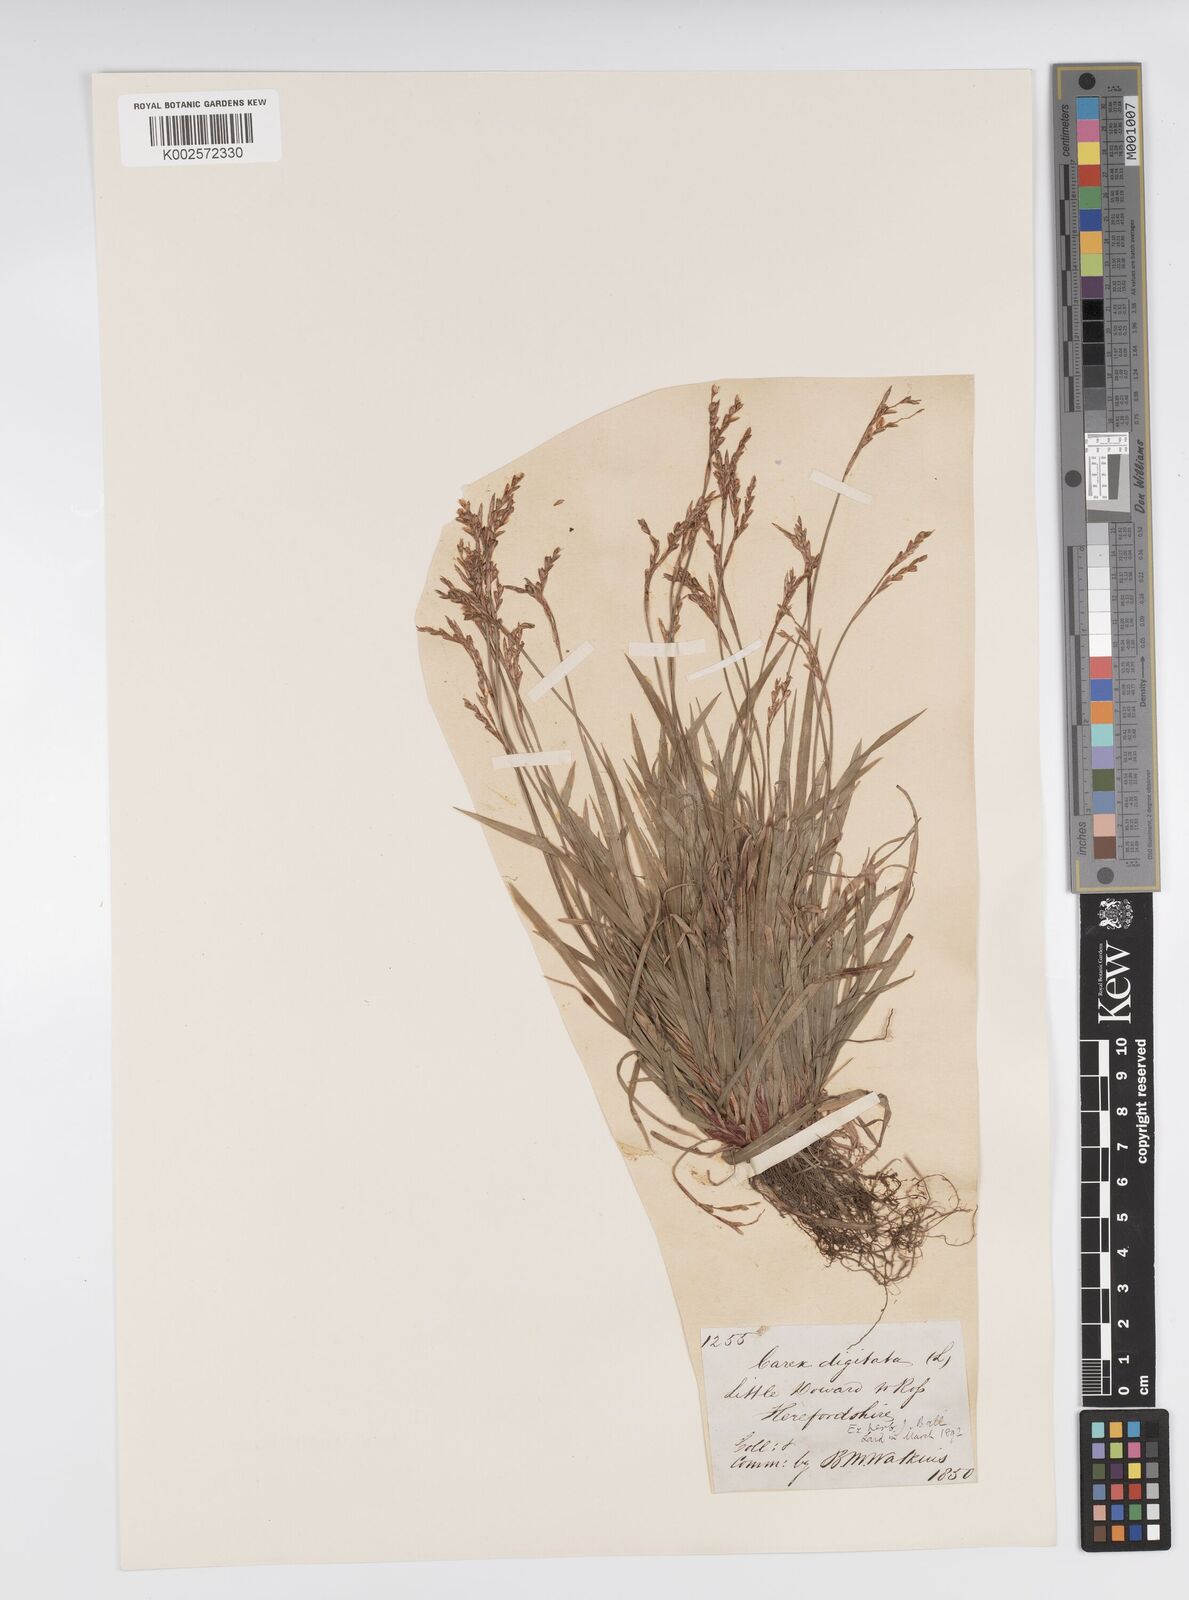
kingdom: Plantae
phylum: Tracheophyta
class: Liliopsida
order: Poales
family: Cyperaceae
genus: Carex
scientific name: Carex digitata
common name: Fingered sedge
